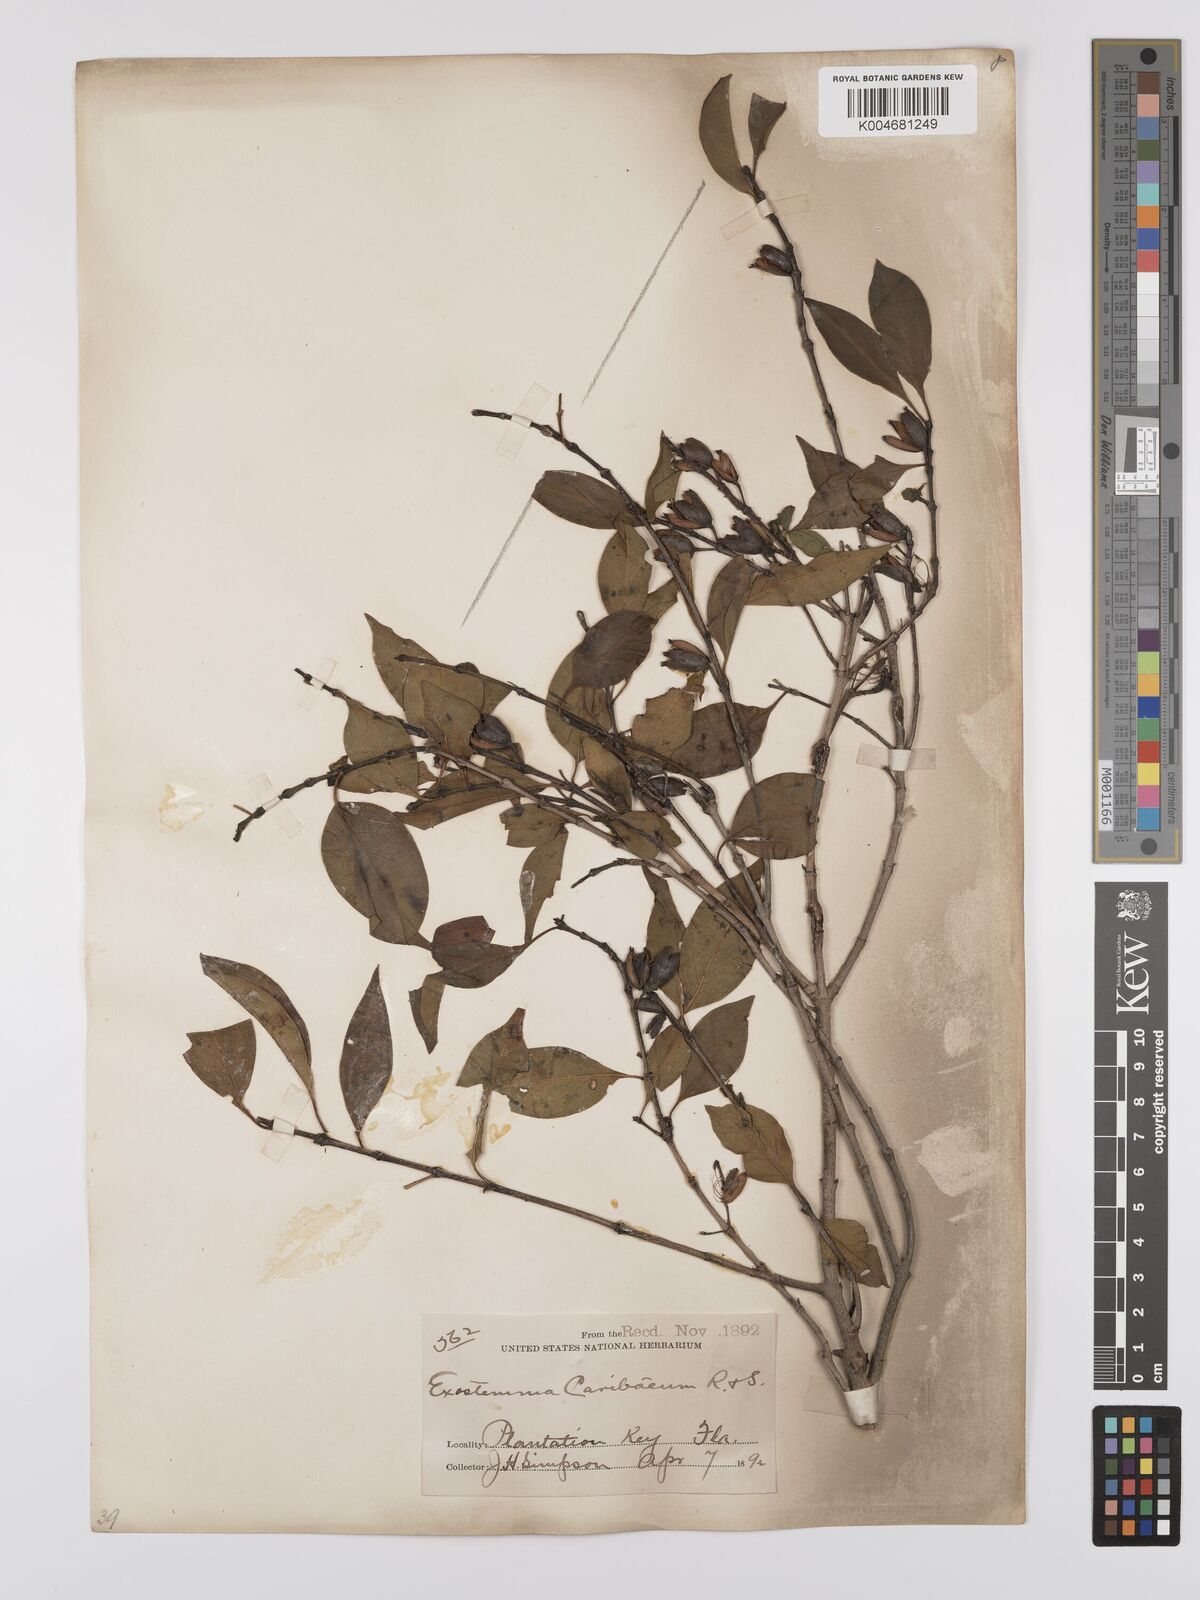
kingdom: Plantae
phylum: Tracheophyta
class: Magnoliopsida
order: Gentianales
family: Rubiaceae
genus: Exostema
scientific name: Exostema caribaeum
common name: Princewood
